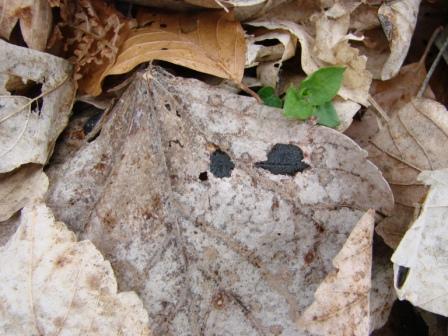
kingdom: Fungi
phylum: Ascomycota
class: Leotiomycetes
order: Rhytismatales
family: Rhytismataceae
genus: Rhytisma
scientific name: Rhytisma acerinum
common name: ahorn-rynkeplet
